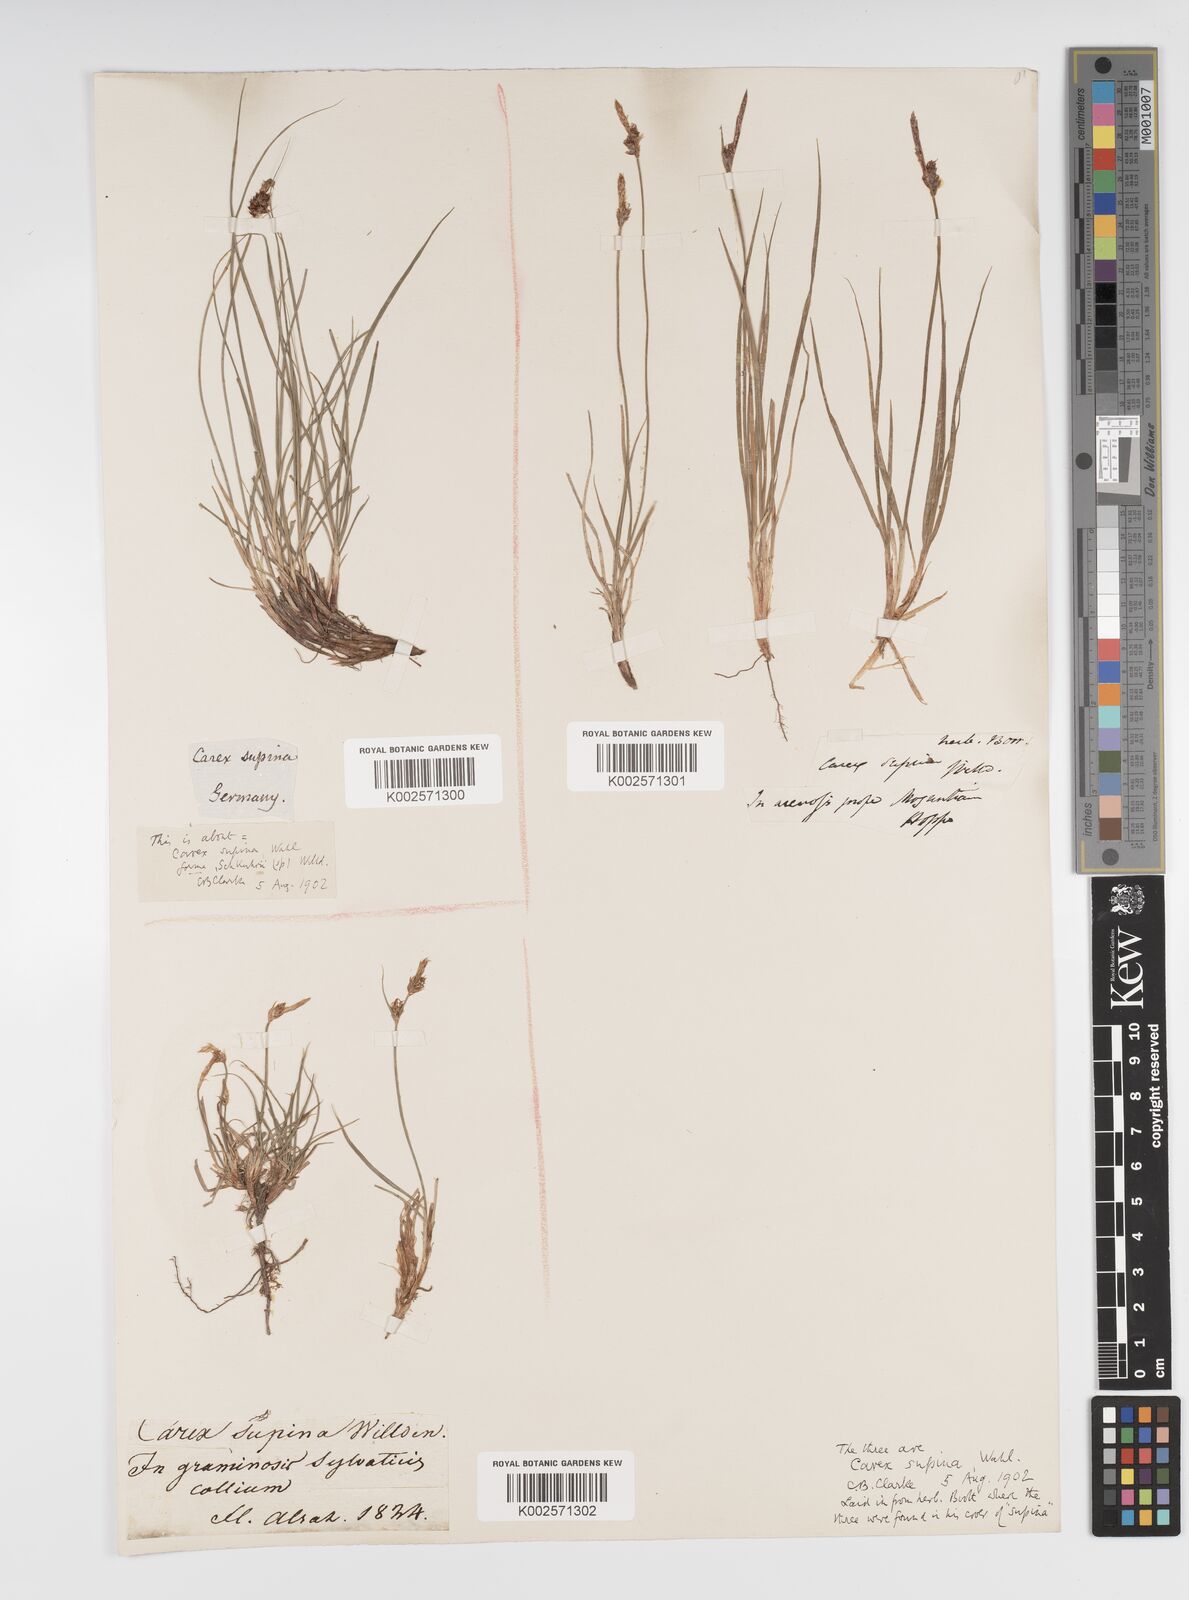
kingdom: Plantae
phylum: Tracheophyta
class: Liliopsida
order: Poales
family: Cyperaceae
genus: Carex
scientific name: Carex supina
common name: Lying-back sedge
